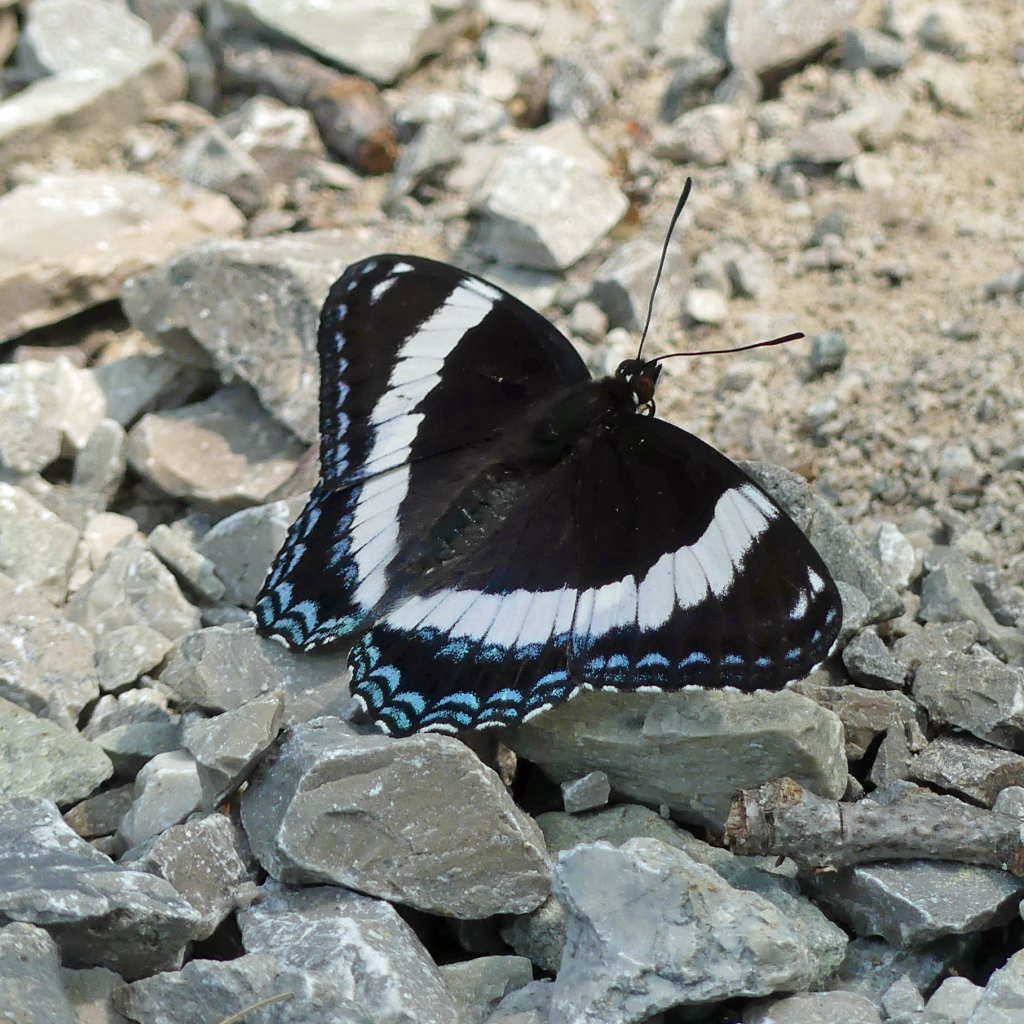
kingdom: Animalia
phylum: Arthropoda
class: Insecta
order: Lepidoptera
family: Nymphalidae
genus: Limenitis
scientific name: Limenitis arthemis
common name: Red-spotted Admiral
